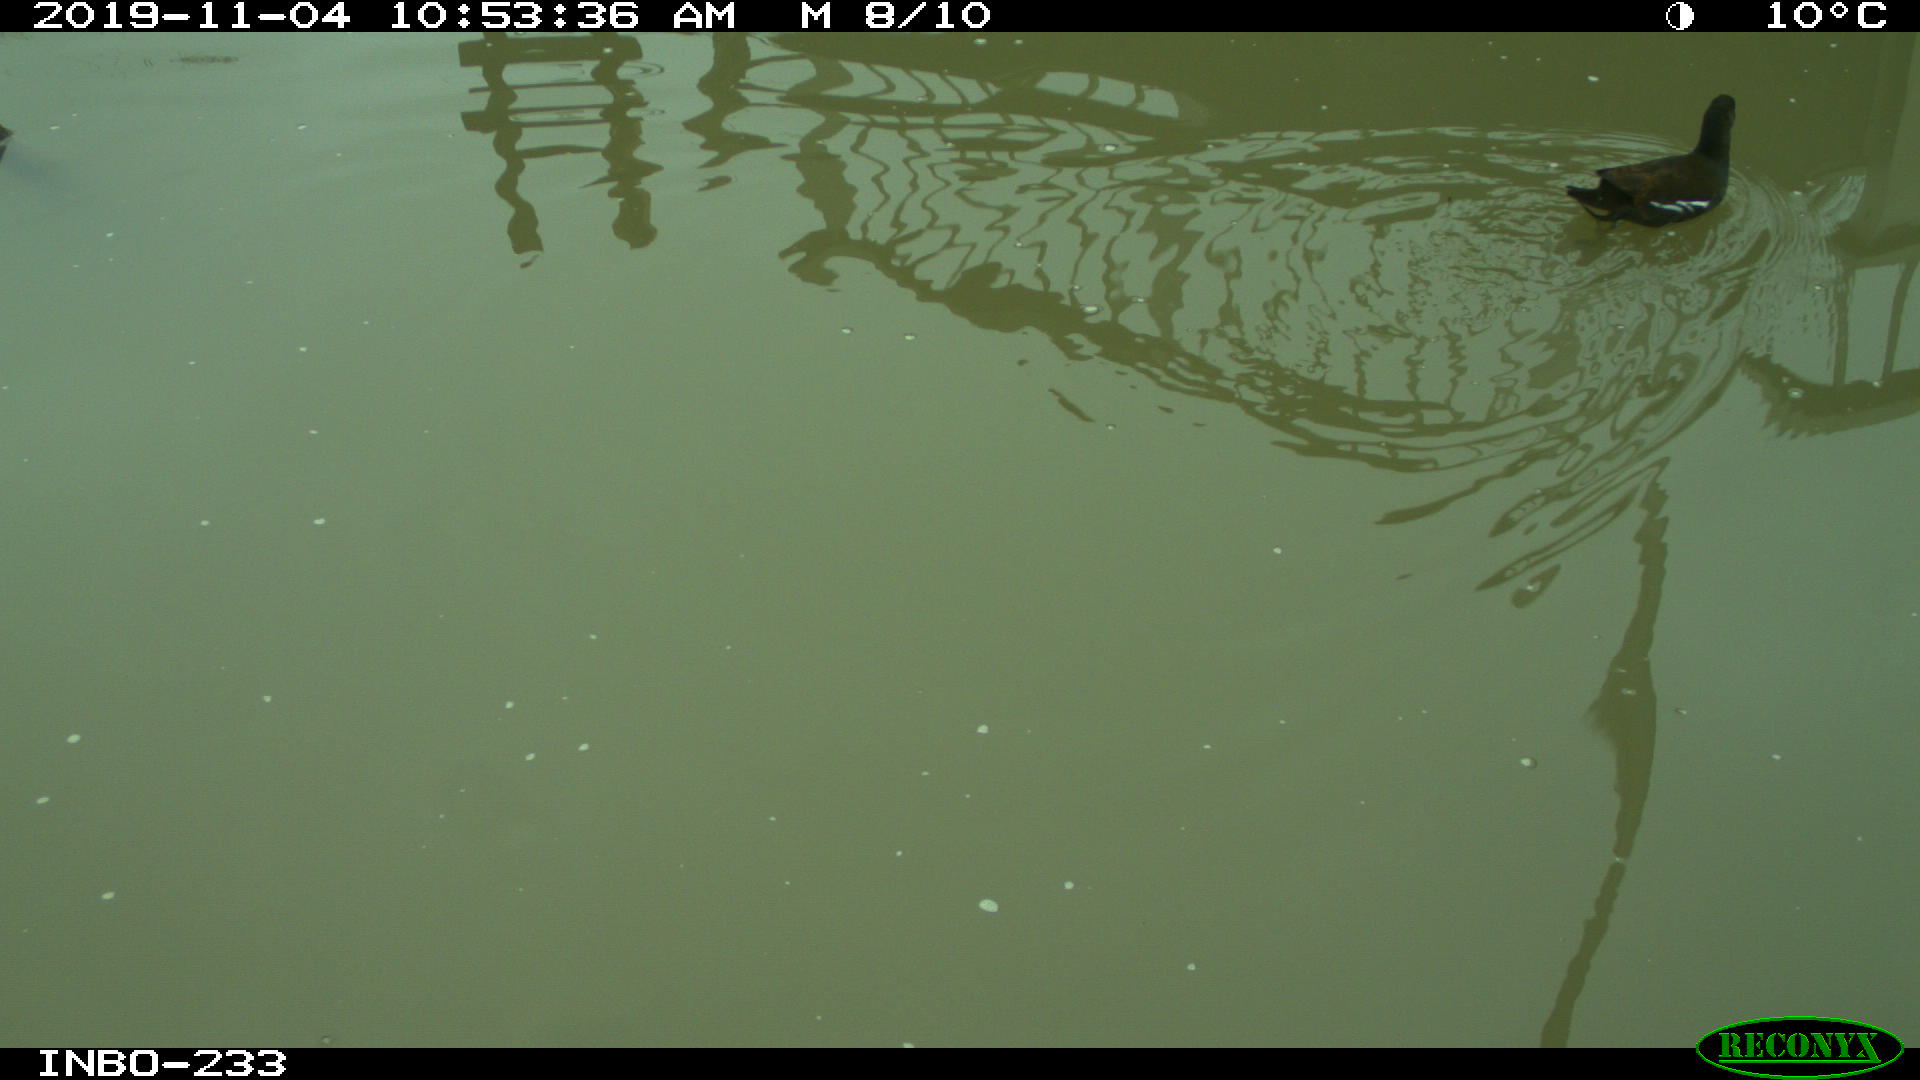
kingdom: Animalia
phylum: Chordata
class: Aves
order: Gruiformes
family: Rallidae
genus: Gallinula
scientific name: Gallinula chloropus
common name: Common moorhen
